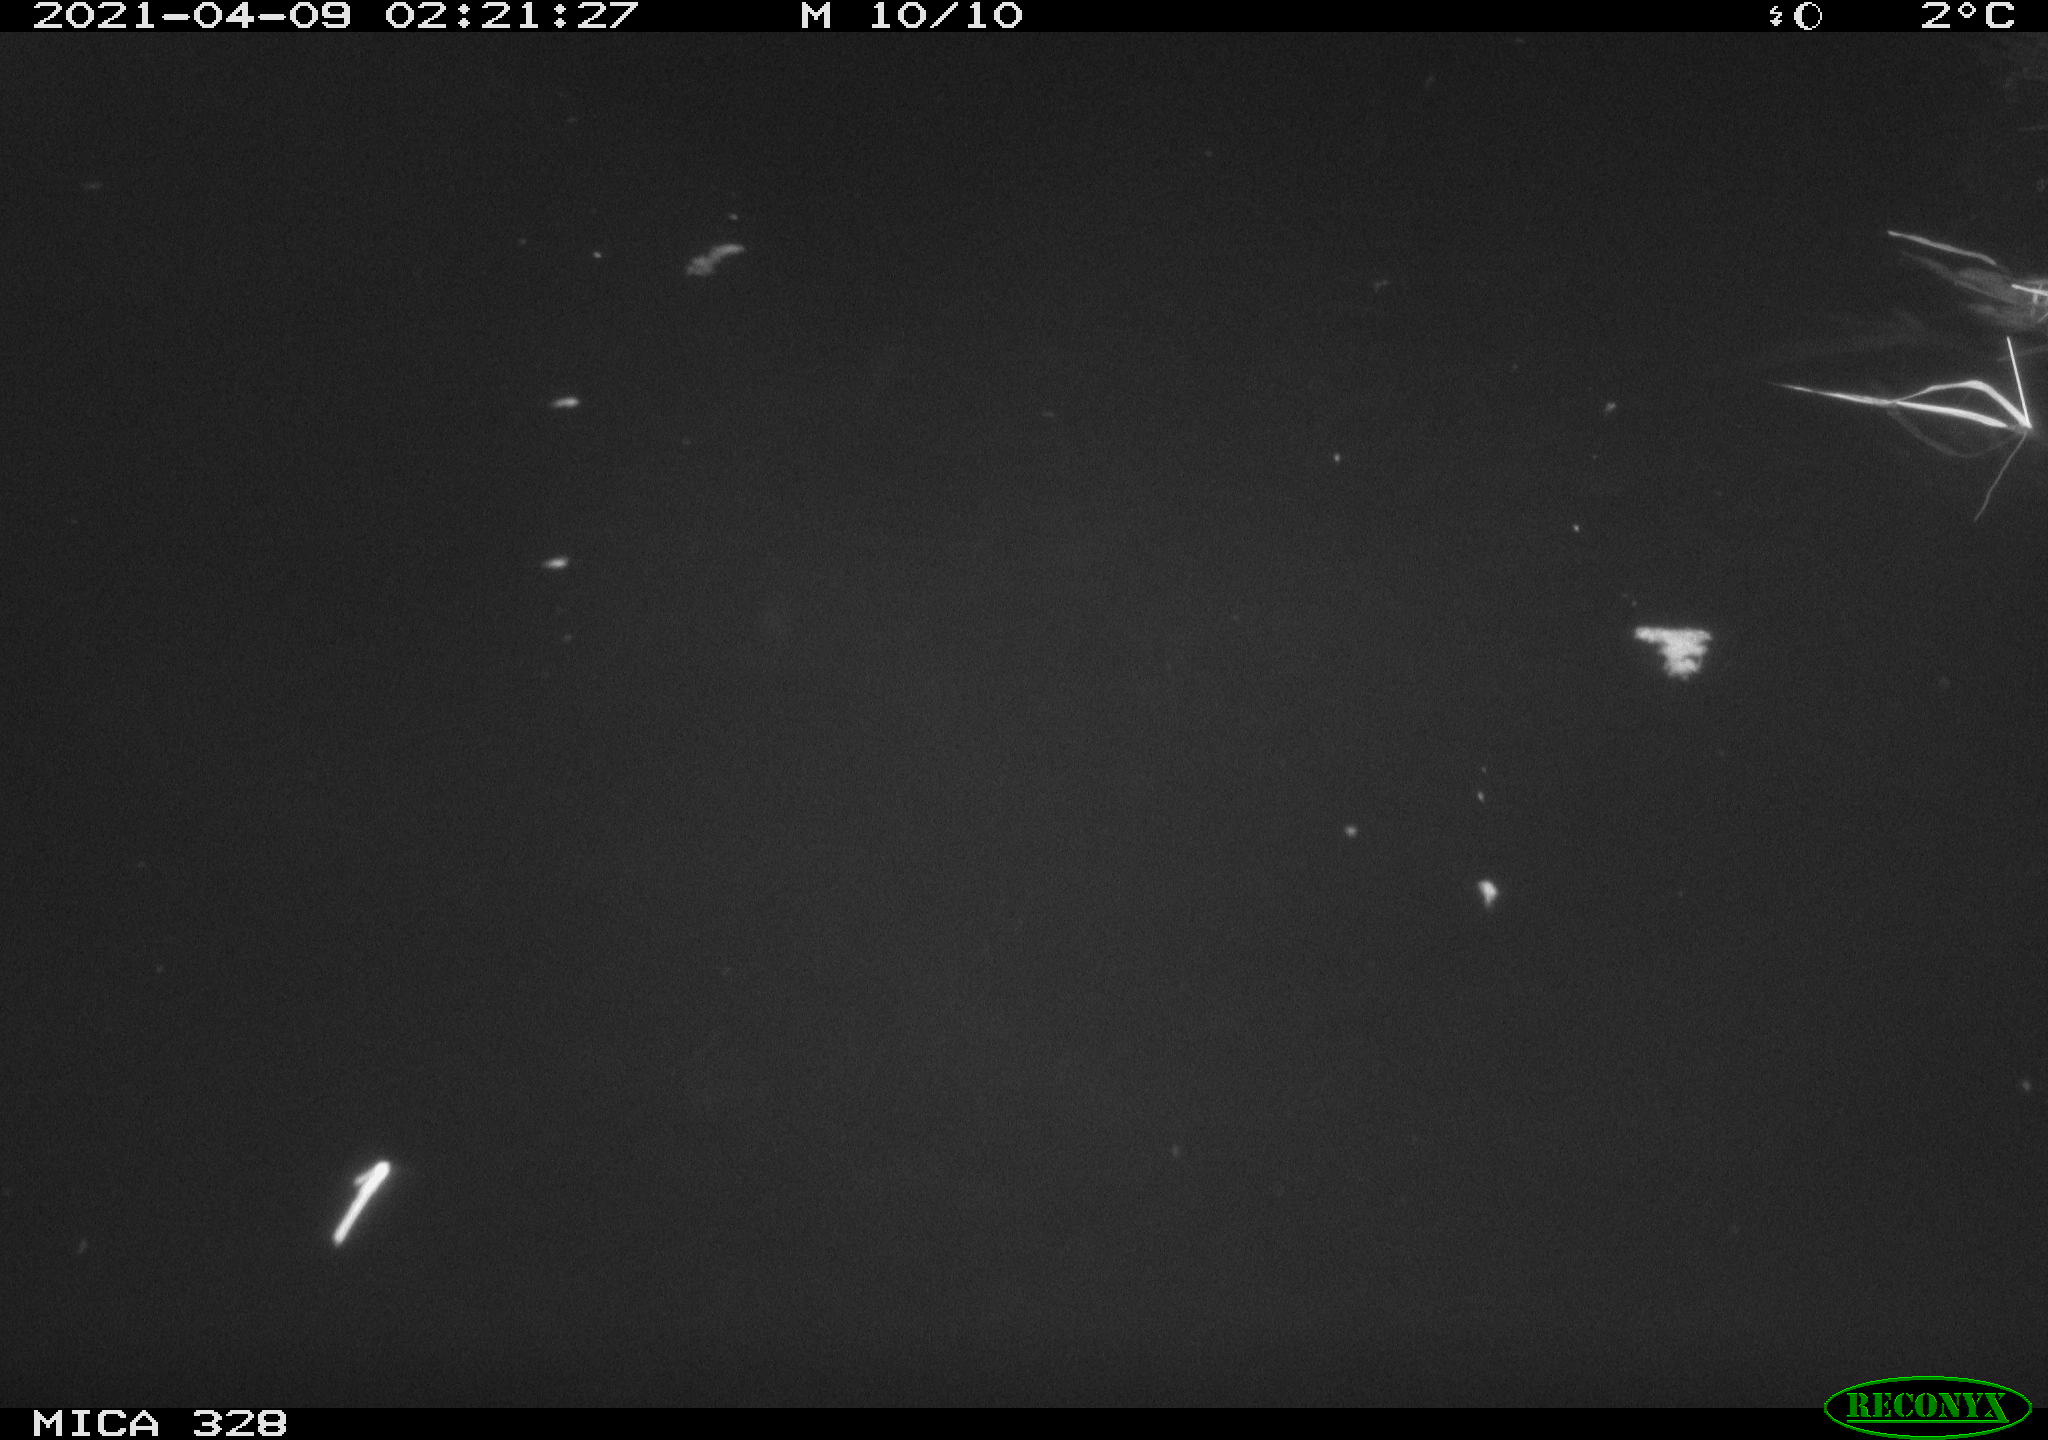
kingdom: Animalia
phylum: Chordata
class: Mammalia
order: Rodentia
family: Cricetidae
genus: Ondatra
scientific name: Ondatra zibethicus
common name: Muskrat
